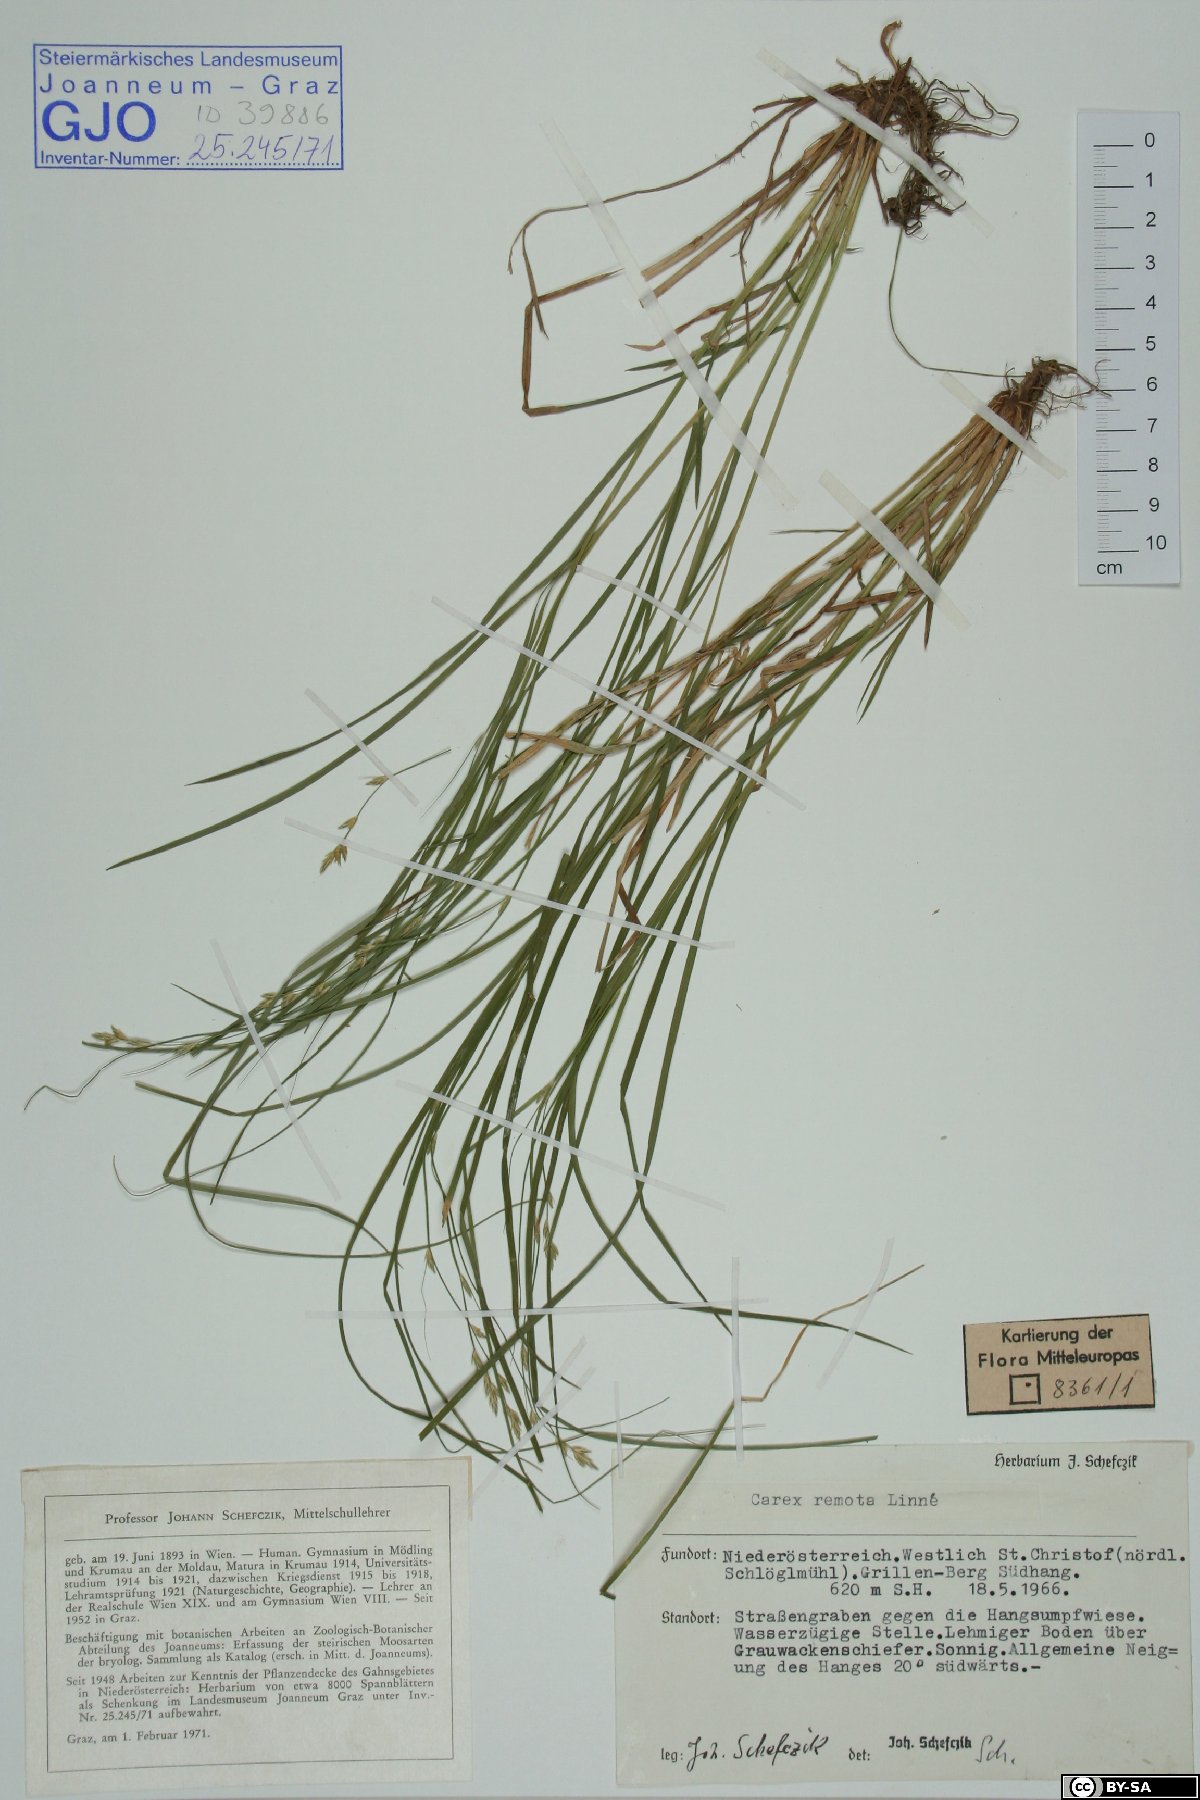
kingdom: Plantae
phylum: Tracheophyta
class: Liliopsida
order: Poales
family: Cyperaceae
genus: Carex
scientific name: Carex remota
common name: Remote sedge
